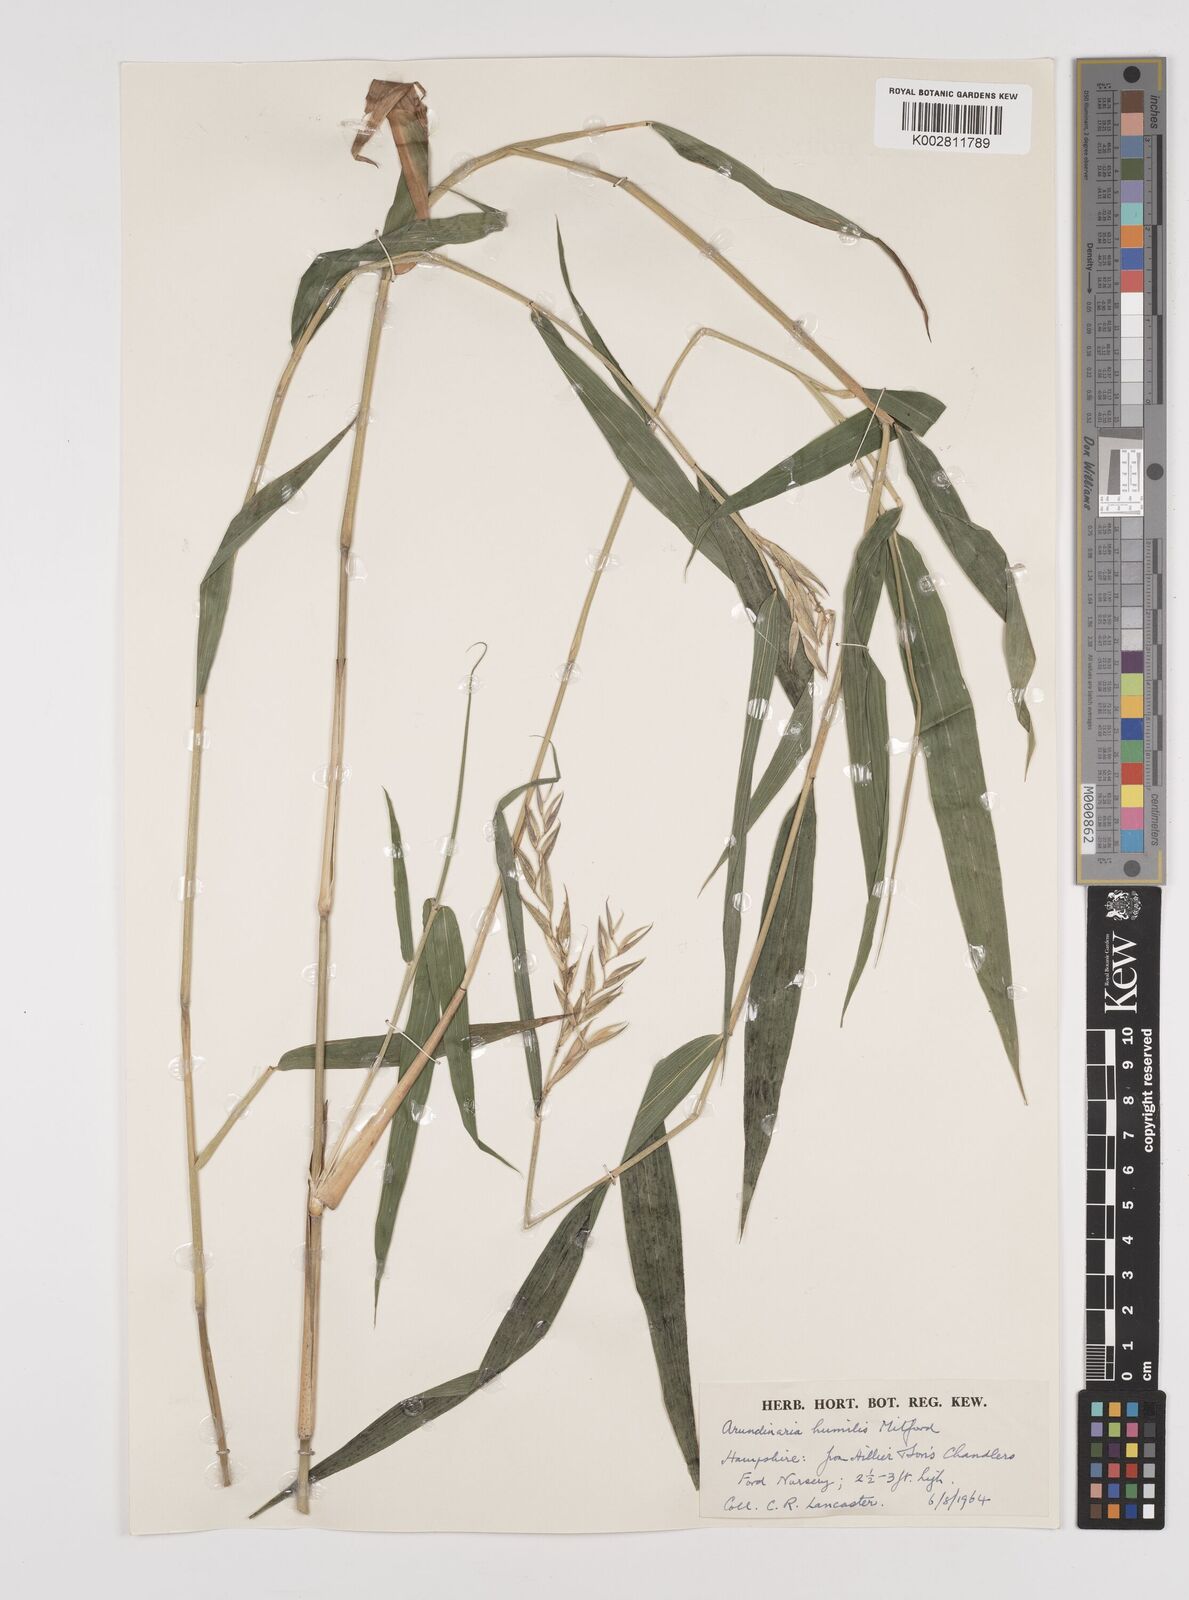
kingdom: Plantae
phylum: Tracheophyta
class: Liliopsida
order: Poales
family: Poaceae
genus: Pseudosasa
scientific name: Pseudosasa humilis
